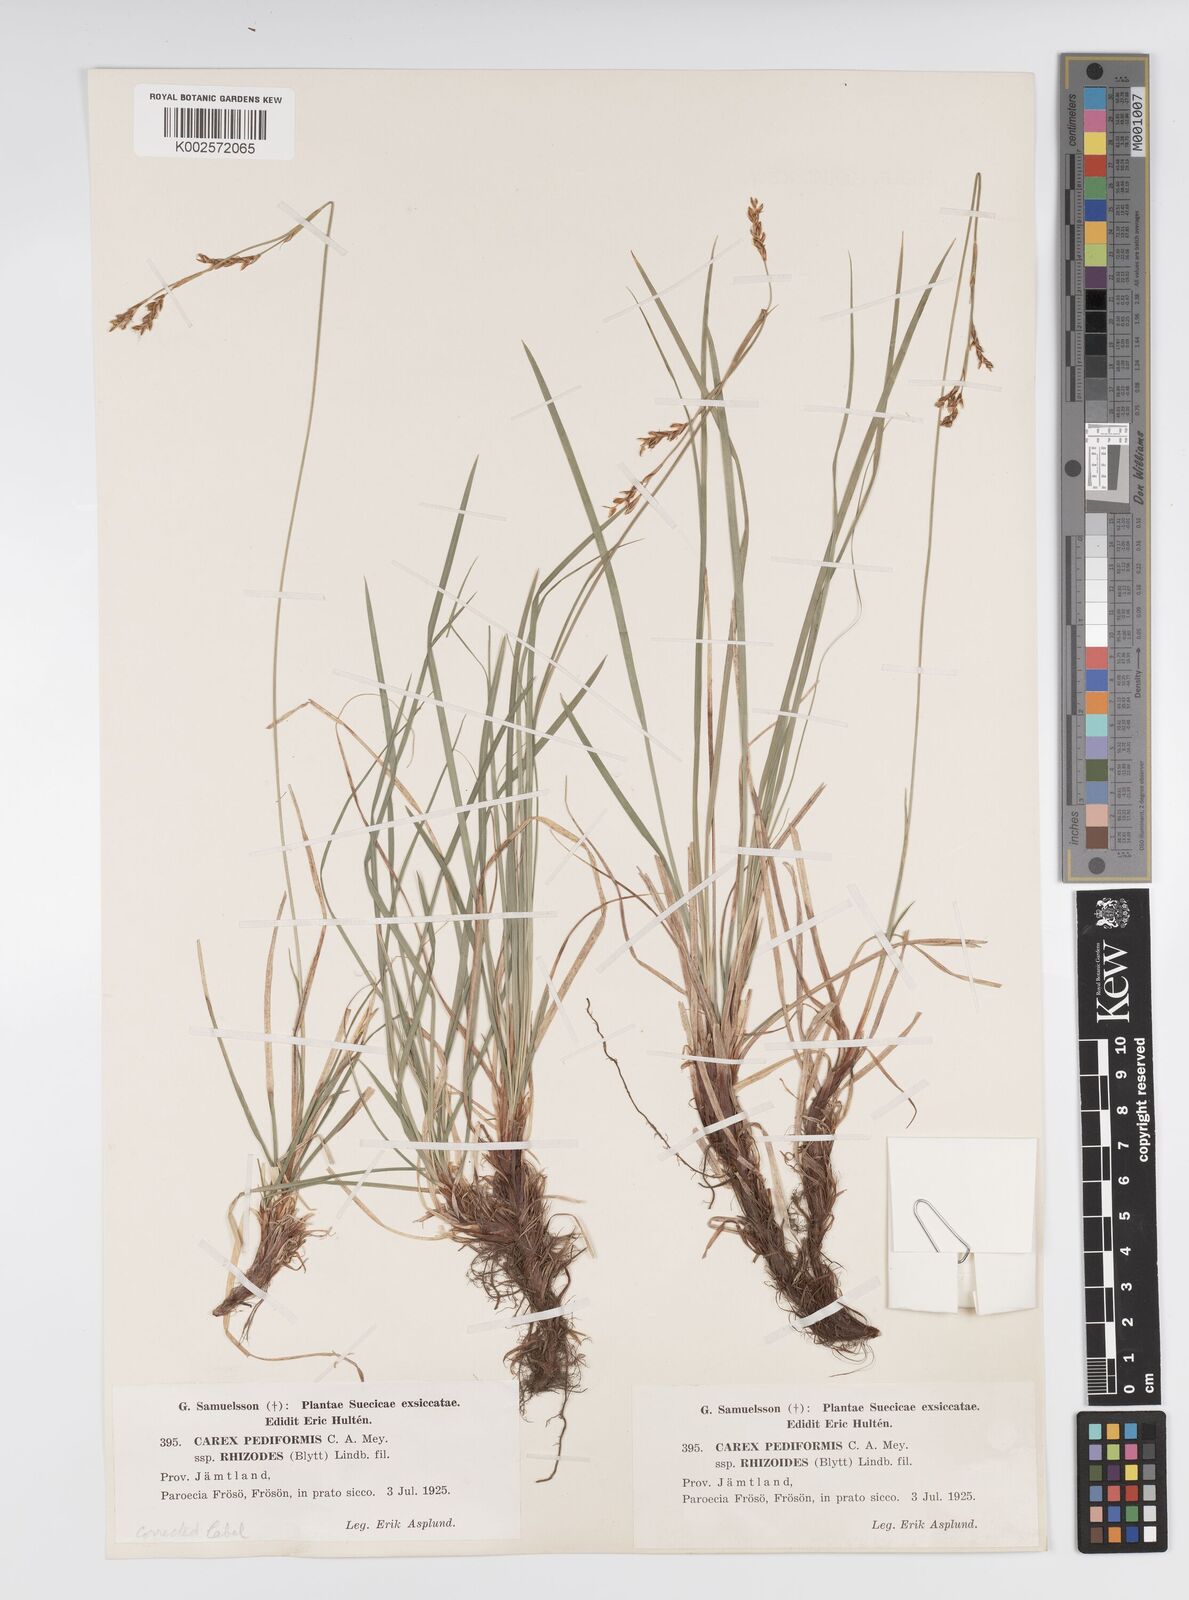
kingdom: Plantae
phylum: Tracheophyta
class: Liliopsida
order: Poales
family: Cyperaceae
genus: Carex
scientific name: Carex pediformis
